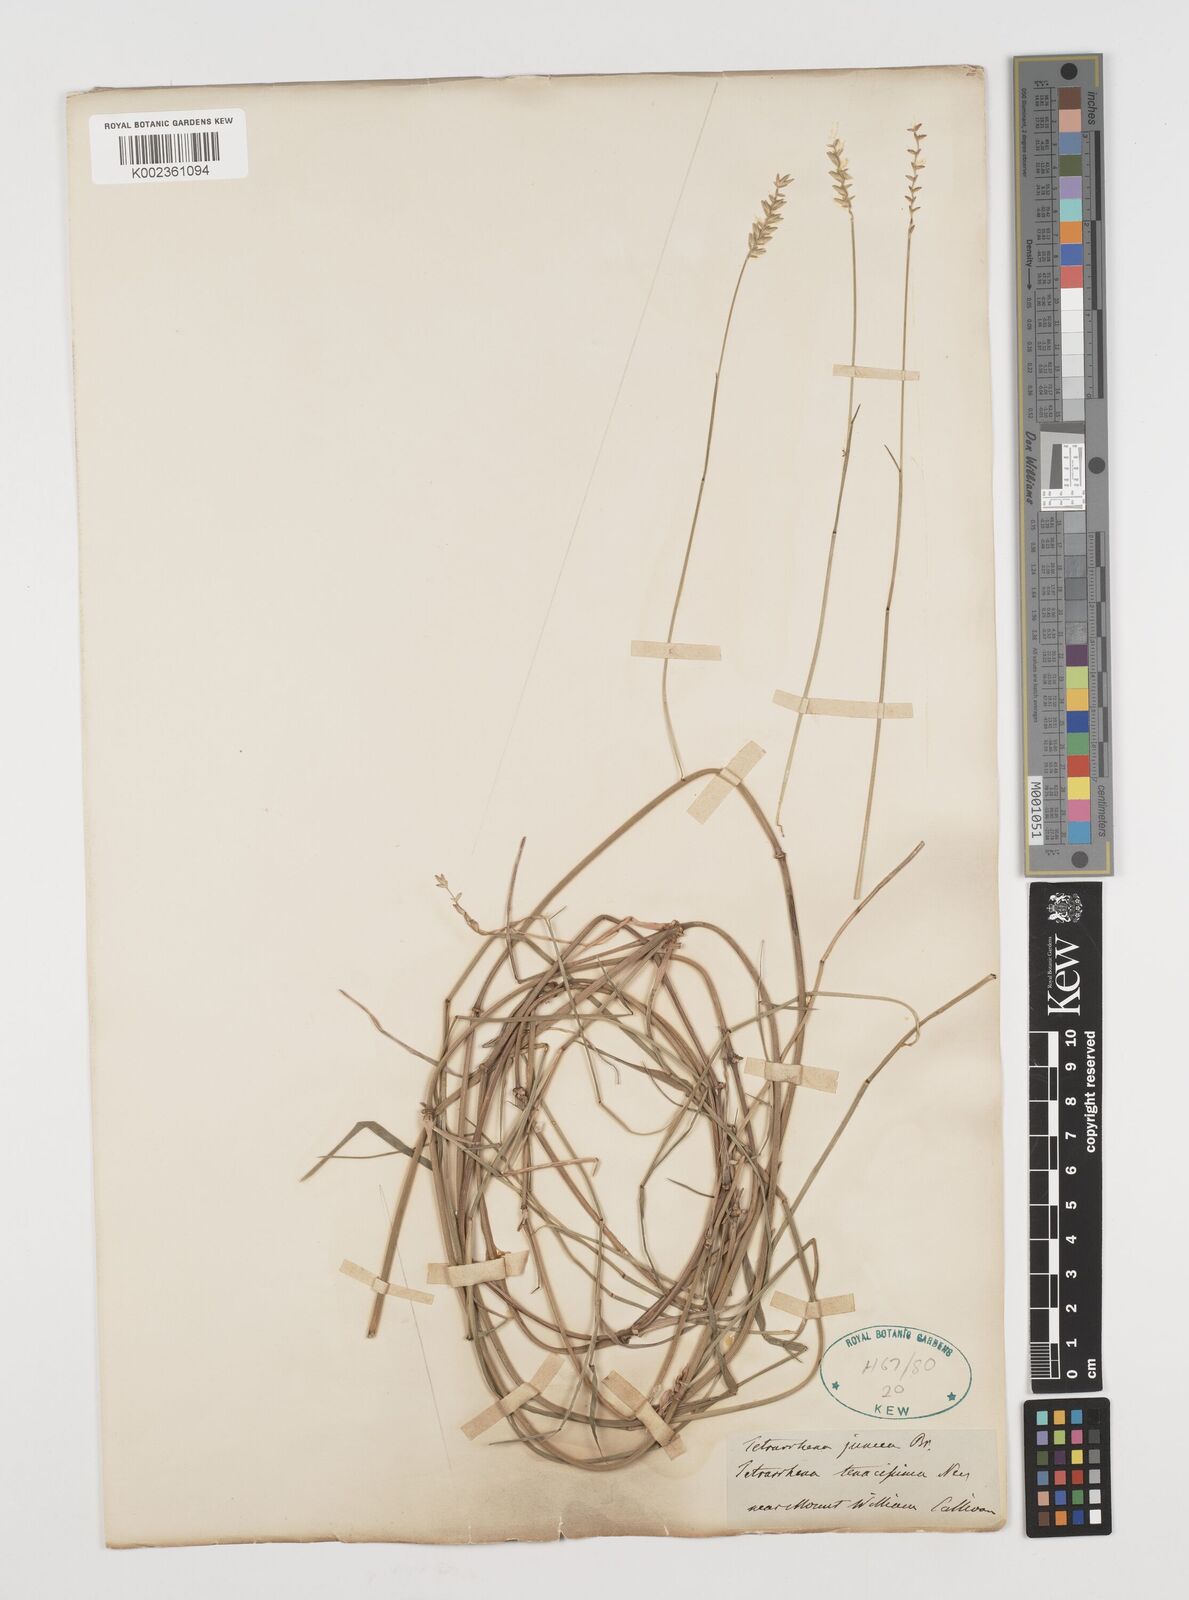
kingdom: Plantae
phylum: Tracheophyta
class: Liliopsida
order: Poales
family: Poaceae
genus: Tetrarrhena
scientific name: Tetrarrhena juncea
